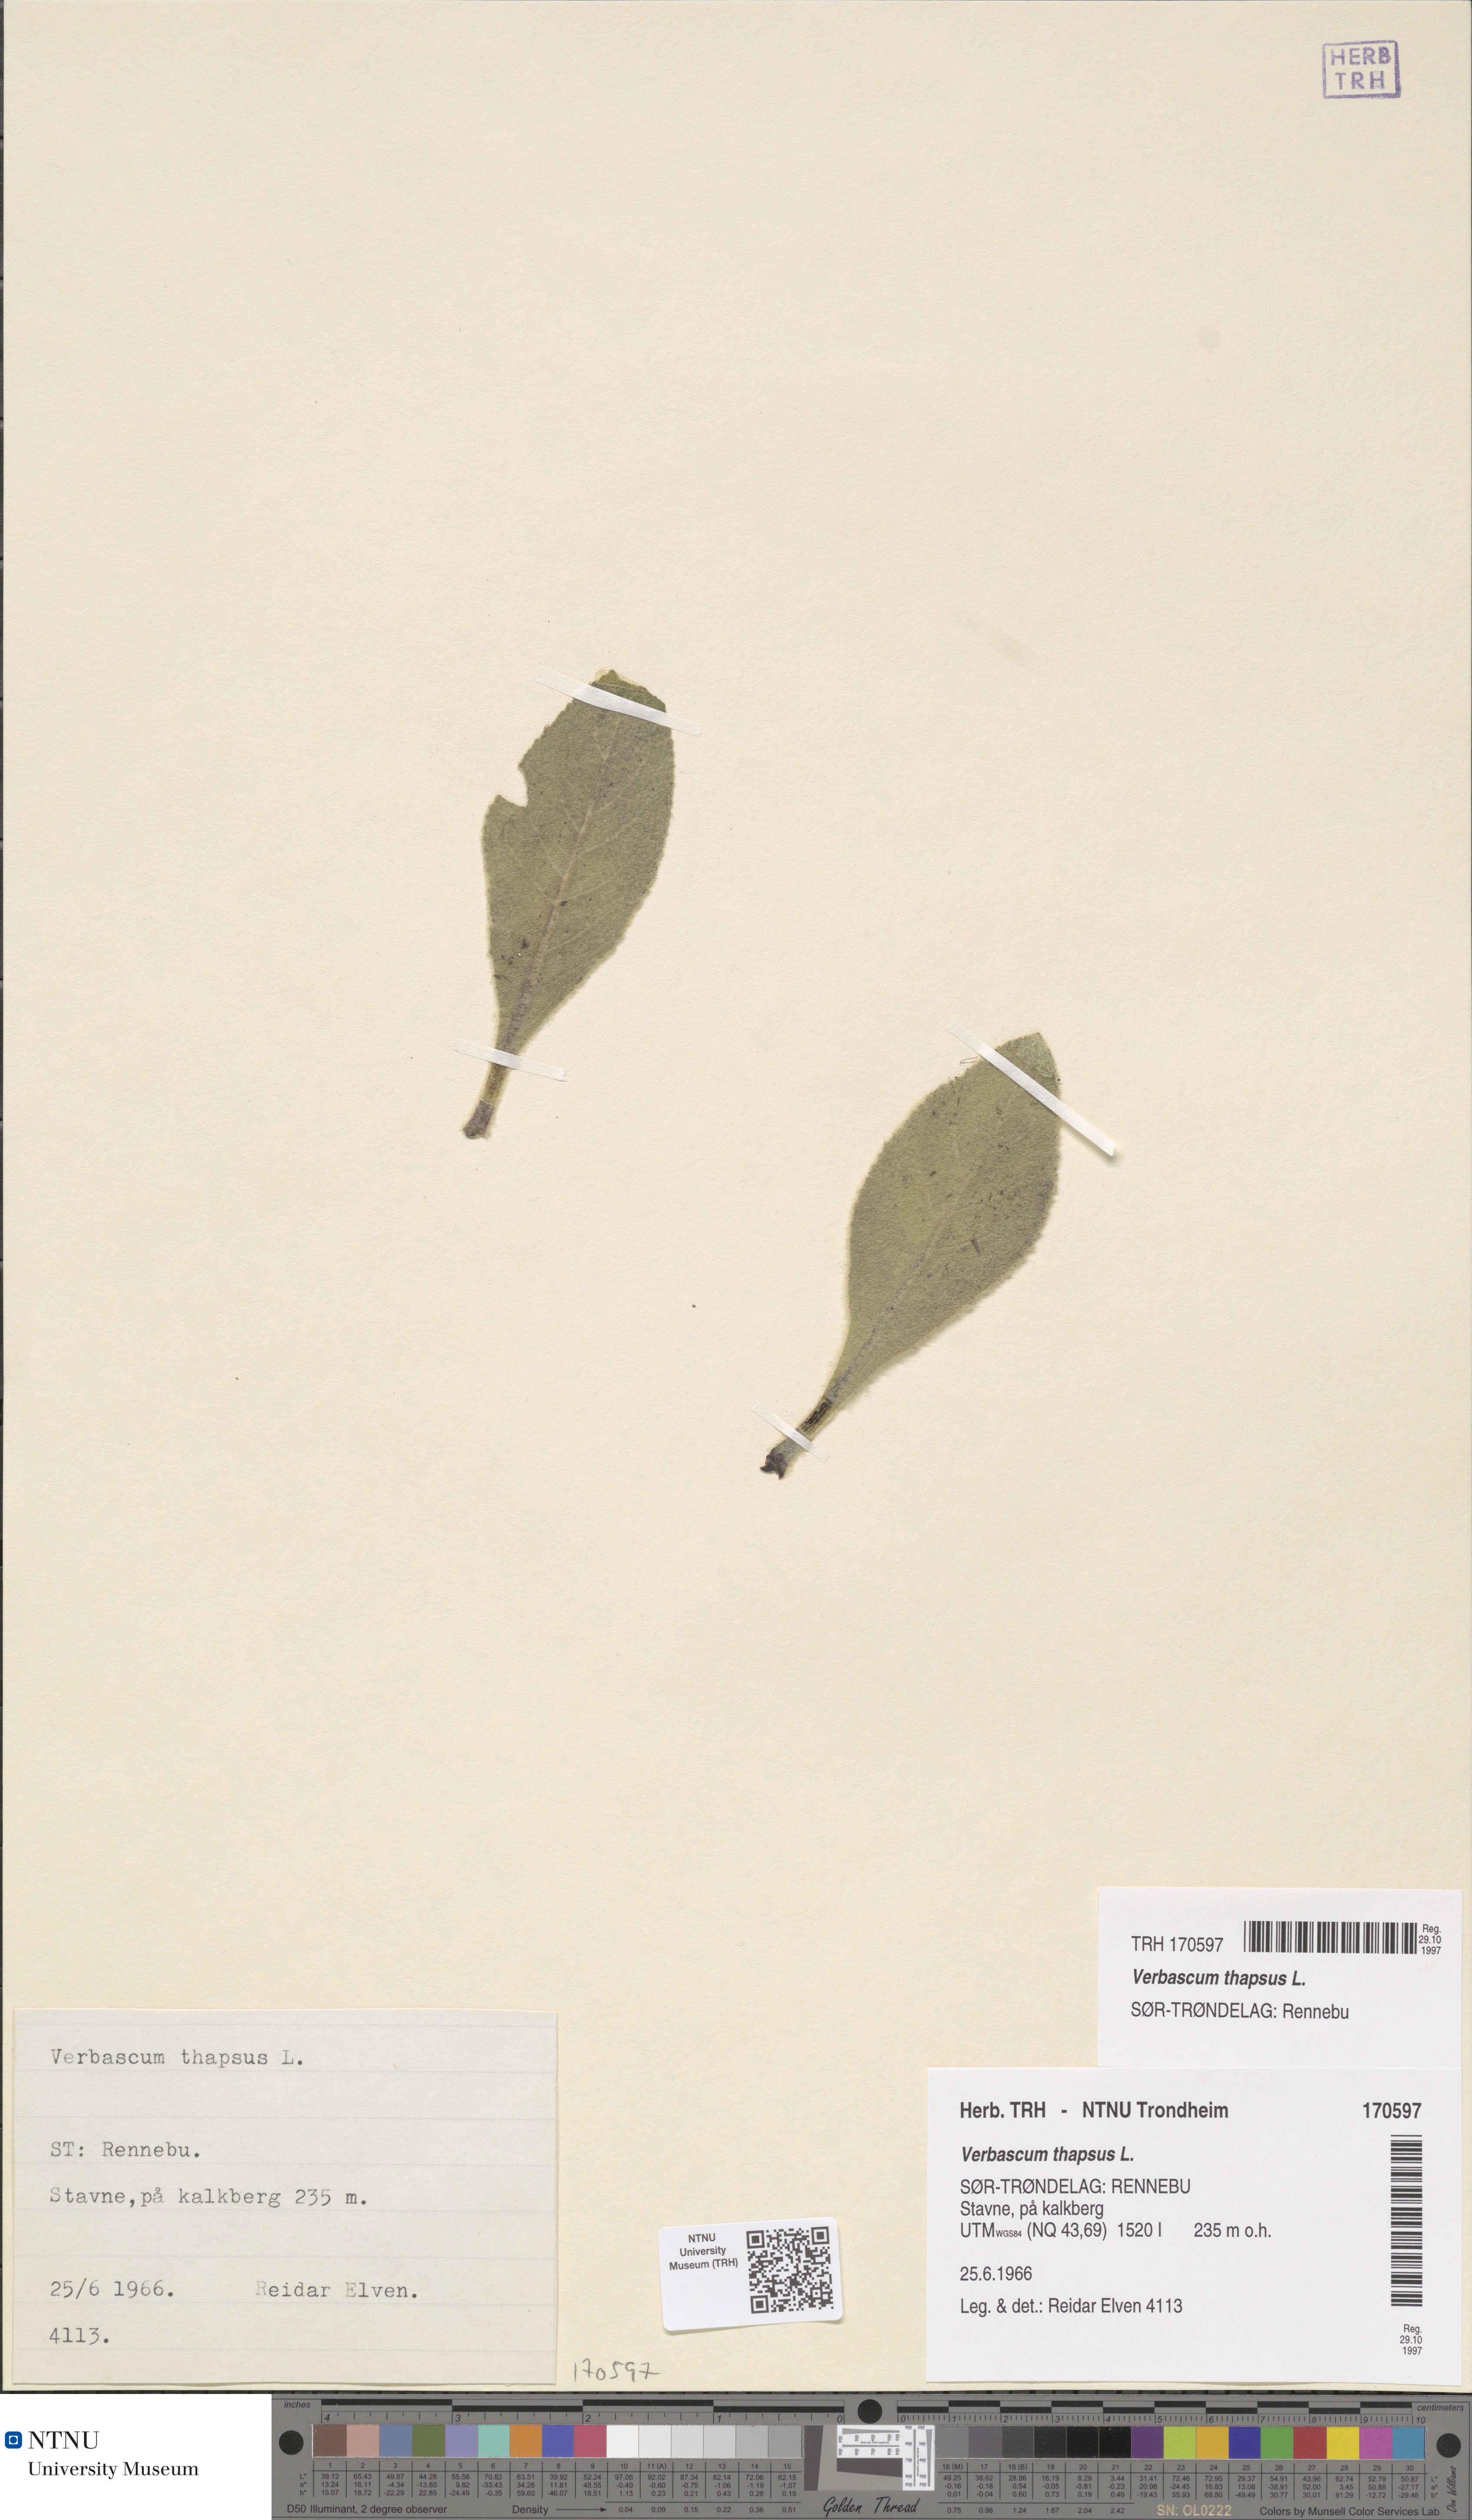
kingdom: Plantae
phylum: Tracheophyta
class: Magnoliopsida
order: Lamiales
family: Scrophulariaceae
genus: Verbascum
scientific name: Verbascum thapsus
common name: Common mullein
